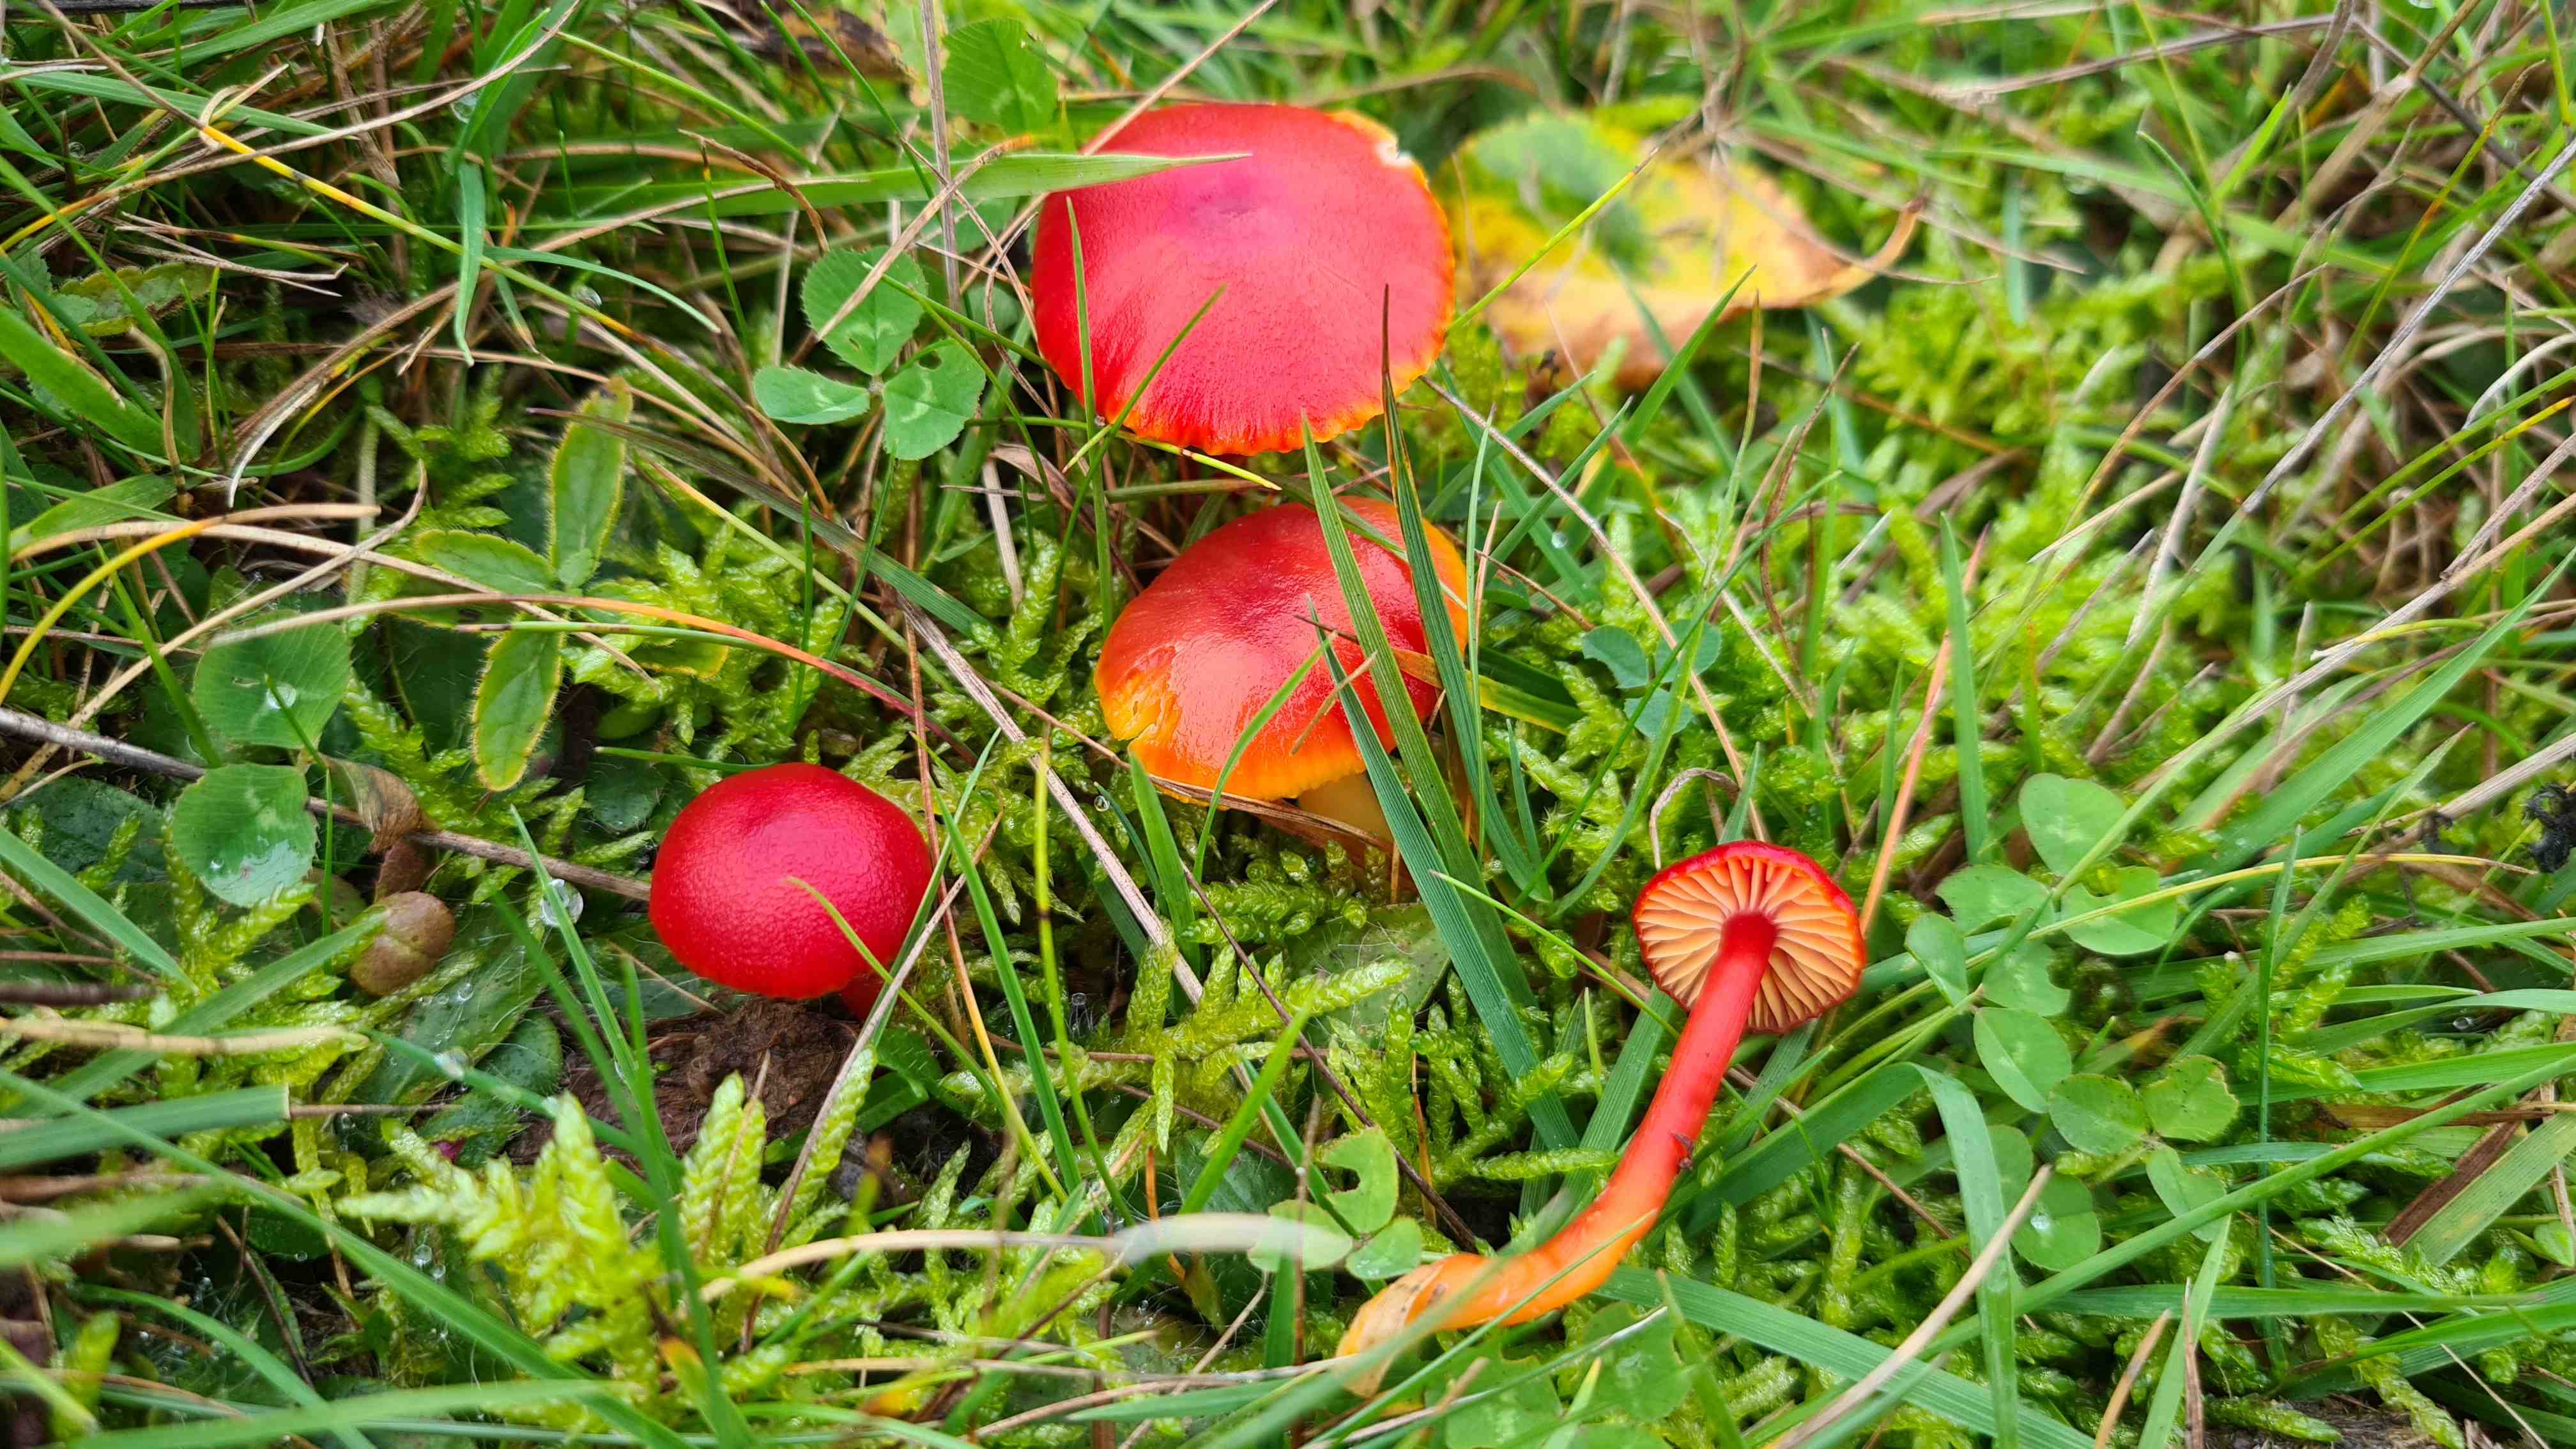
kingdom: Fungi
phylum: Basidiomycota
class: Agaricomycetes
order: Agaricales
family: Hygrophoraceae
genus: Hygrocybe
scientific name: Hygrocybe coccinea
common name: cinnober-vokshat
